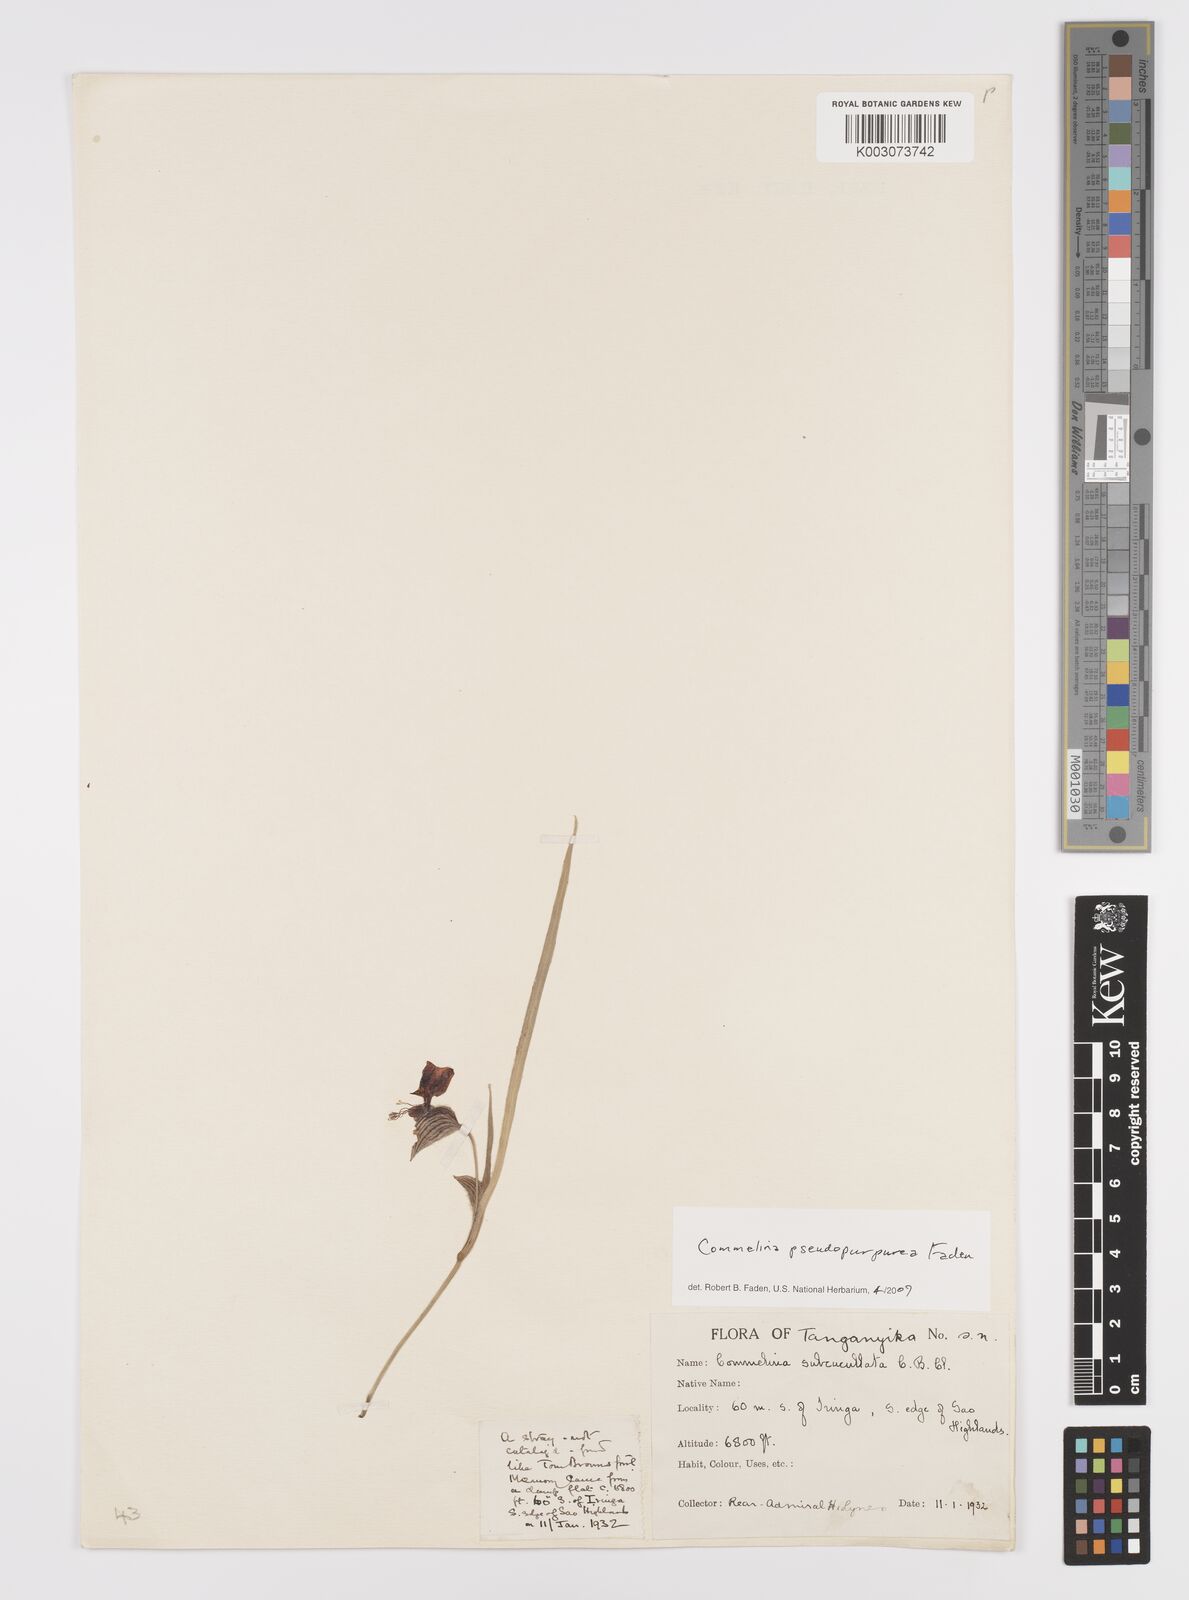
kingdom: Plantae
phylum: Tracheophyta
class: Liliopsida
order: Commelinales
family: Commelinaceae
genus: Commelina
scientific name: Commelina pseudopurpurea
